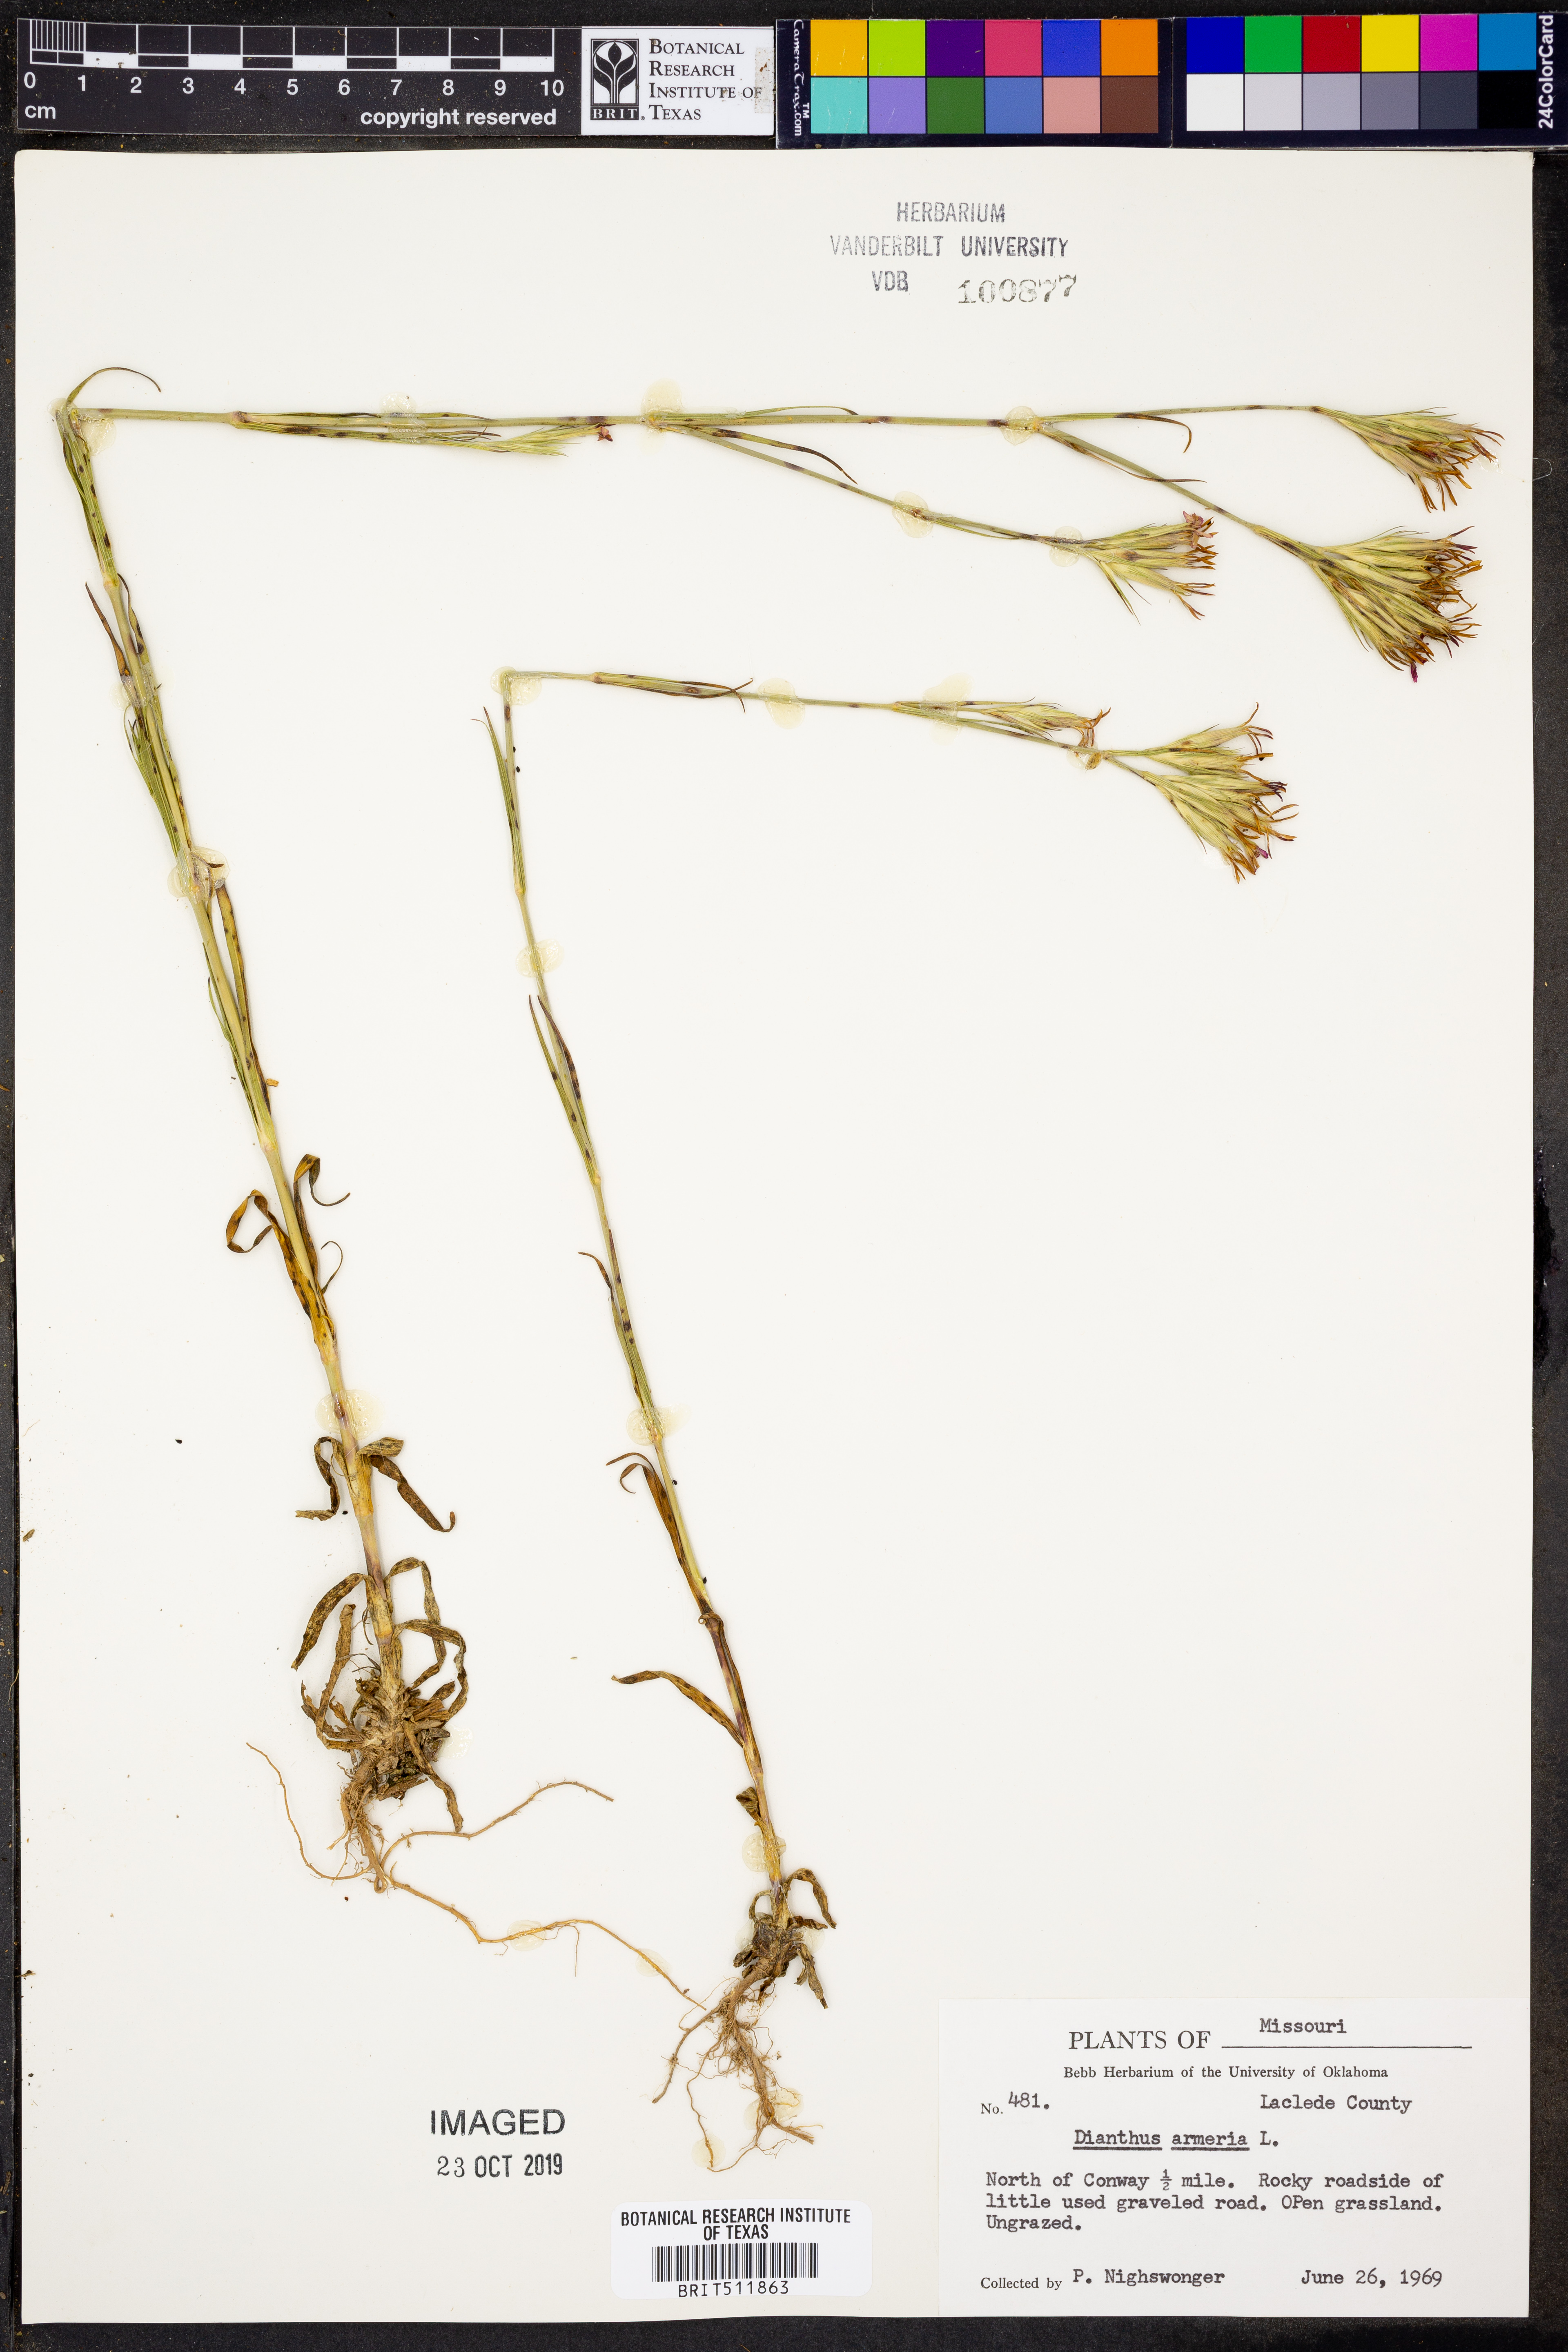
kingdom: Plantae
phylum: Tracheophyta
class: Magnoliopsida
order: Caryophyllales
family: Caryophyllaceae
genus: Dianthus
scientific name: Dianthus armeria
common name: Deptford pink
